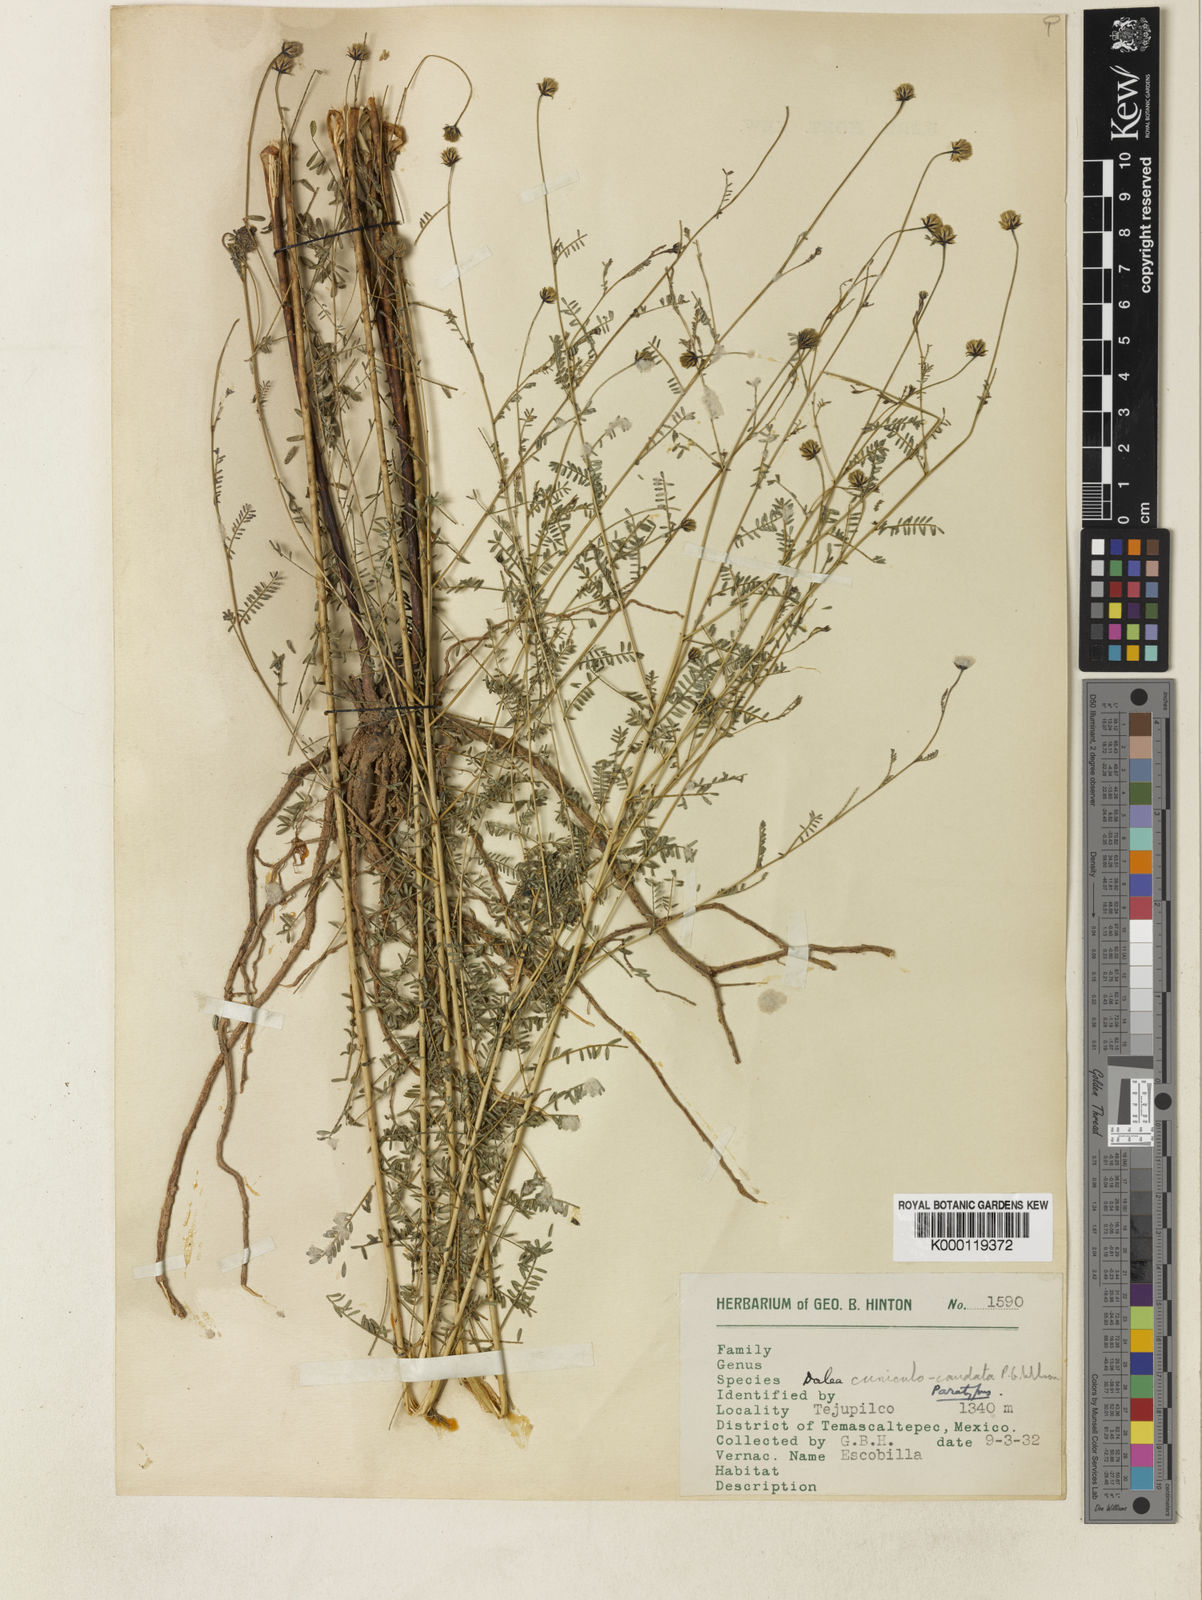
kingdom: Plantae
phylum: Tracheophyta
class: Magnoliopsida
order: Fabales
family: Fabaceae
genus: Dalea
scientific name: Dalea cuniculocaudata
